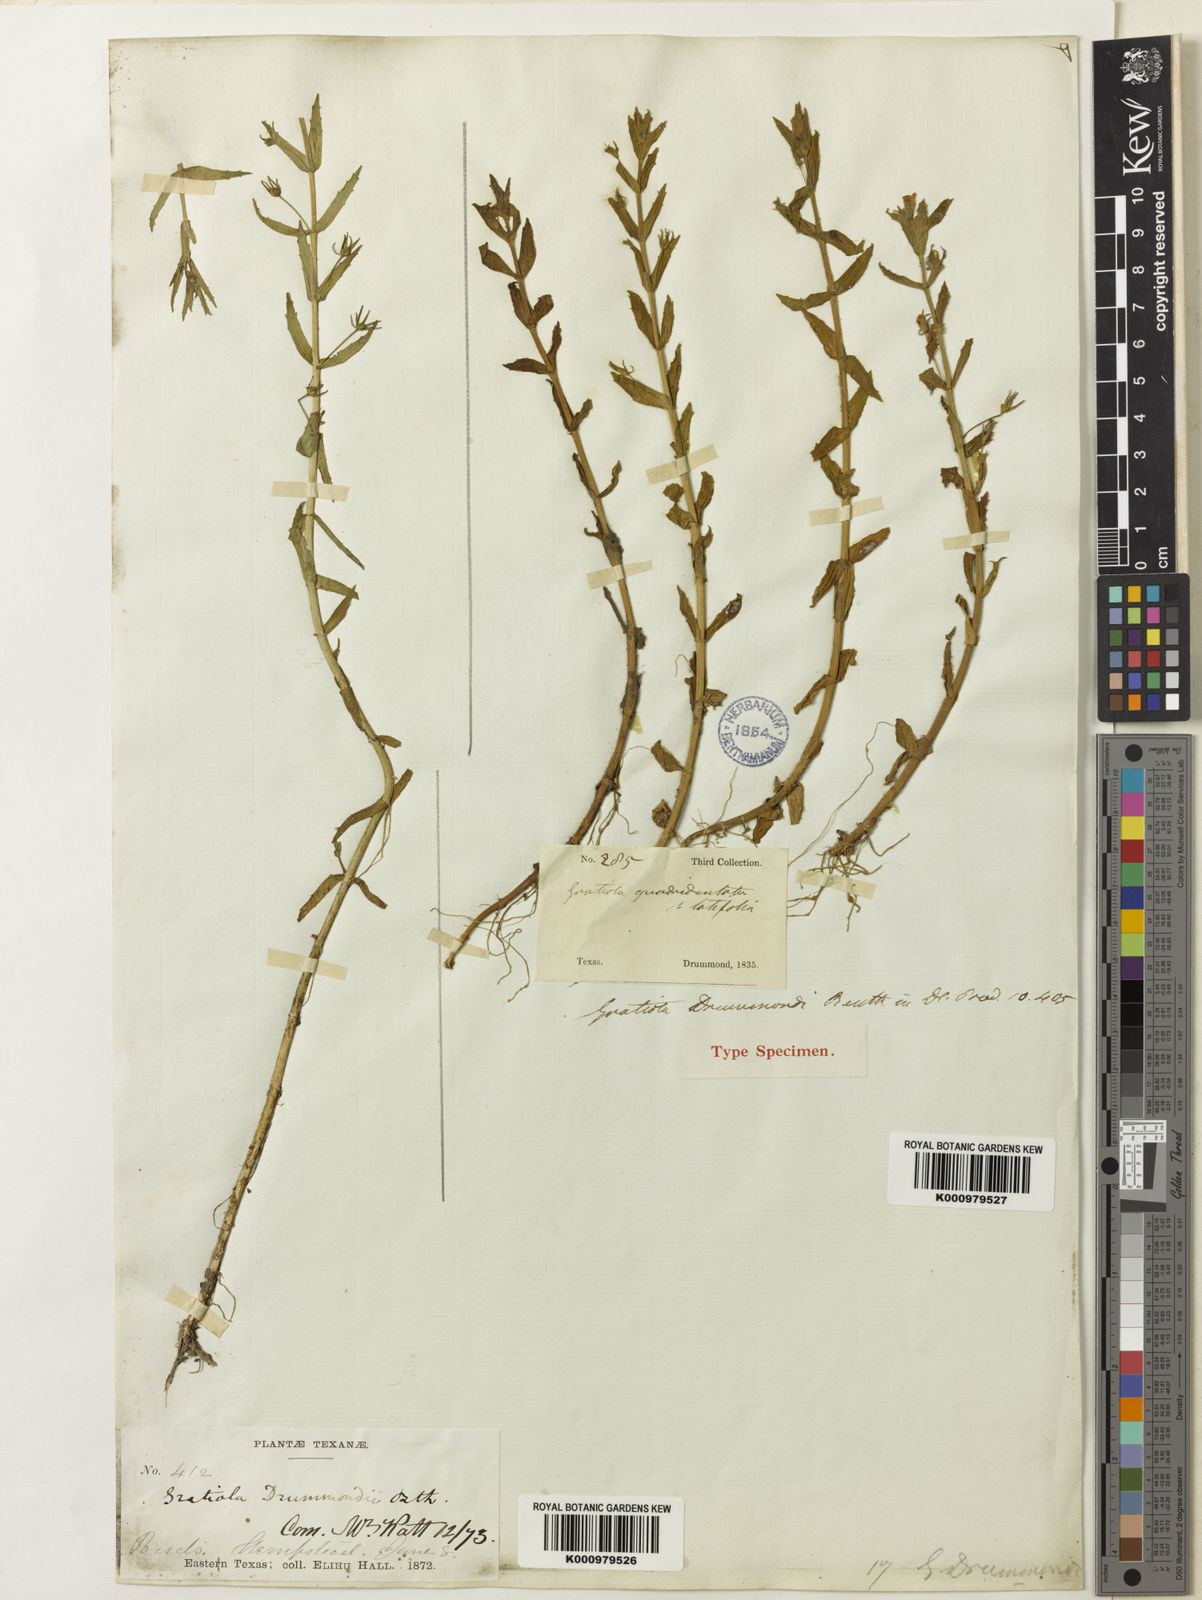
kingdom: Plantae
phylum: Tracheophyta
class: Magnoliopsida
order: Lamiales
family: Plantaginaceae
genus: Gratiola
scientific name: Gratiola ramosa
